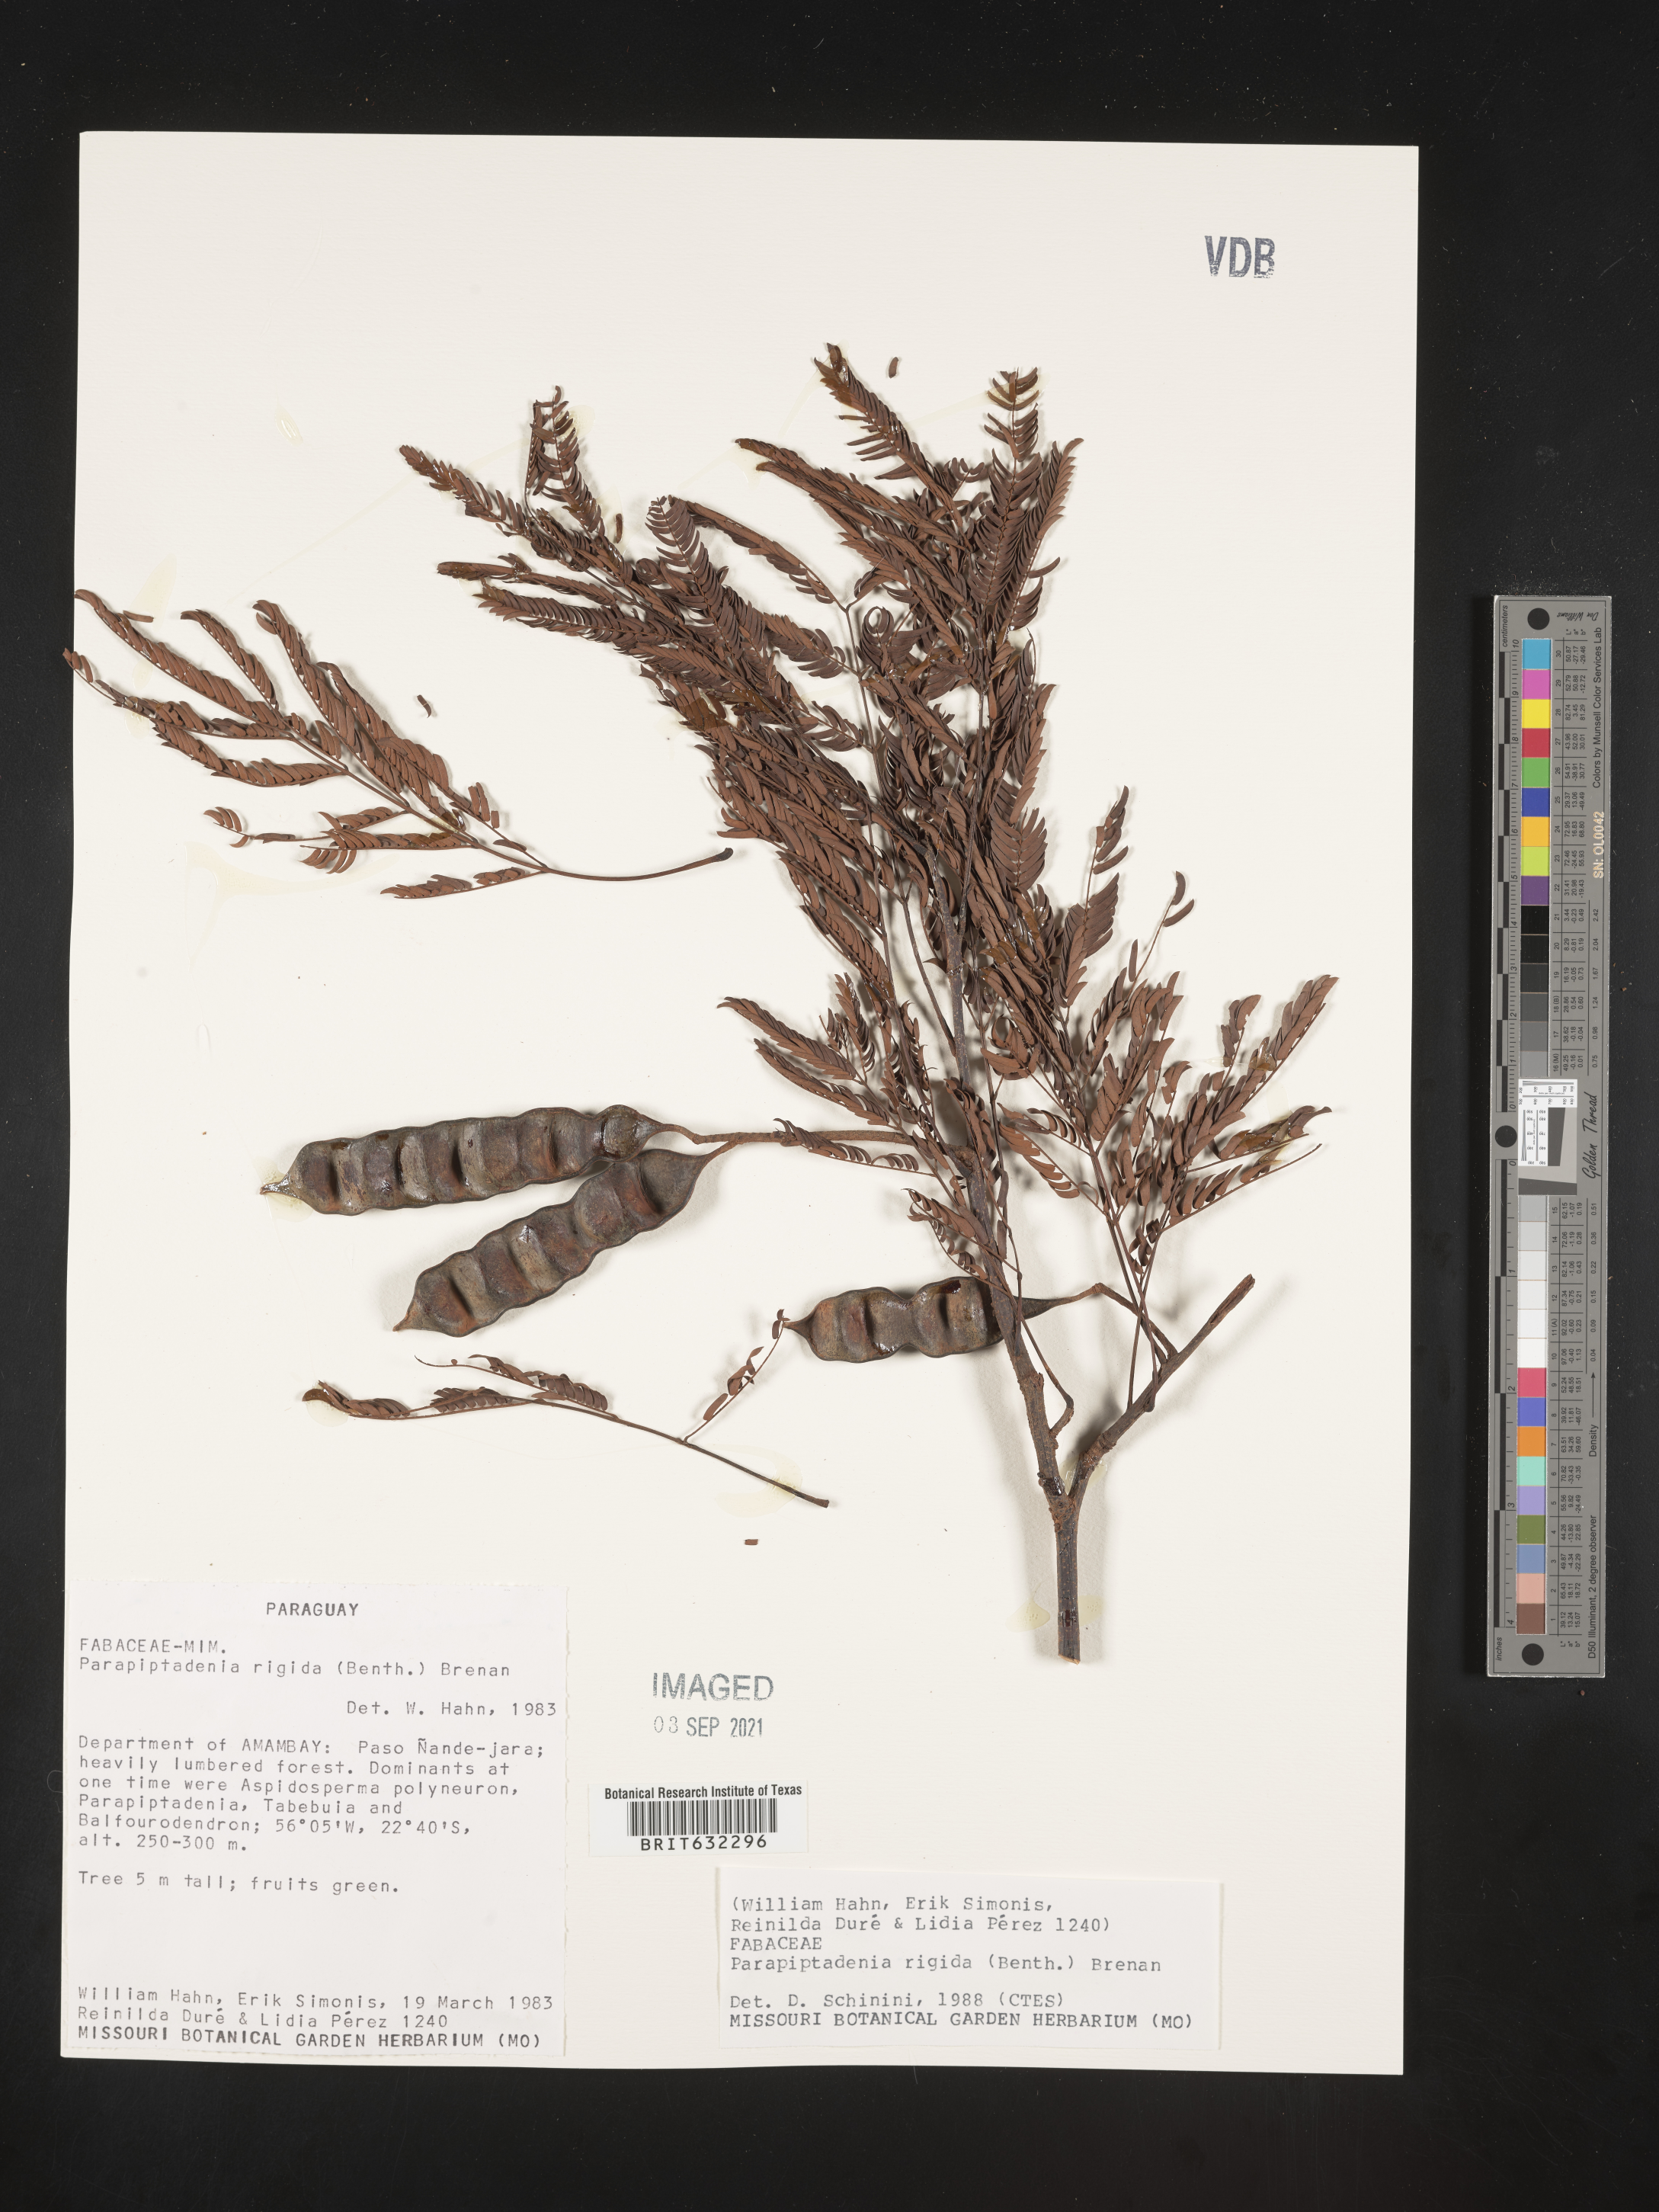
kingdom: Plantae
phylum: Tracheophyta
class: Magnoliopsida
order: Fabales
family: Fabaceae
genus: Parapiptadenia
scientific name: Parapiptadenia
